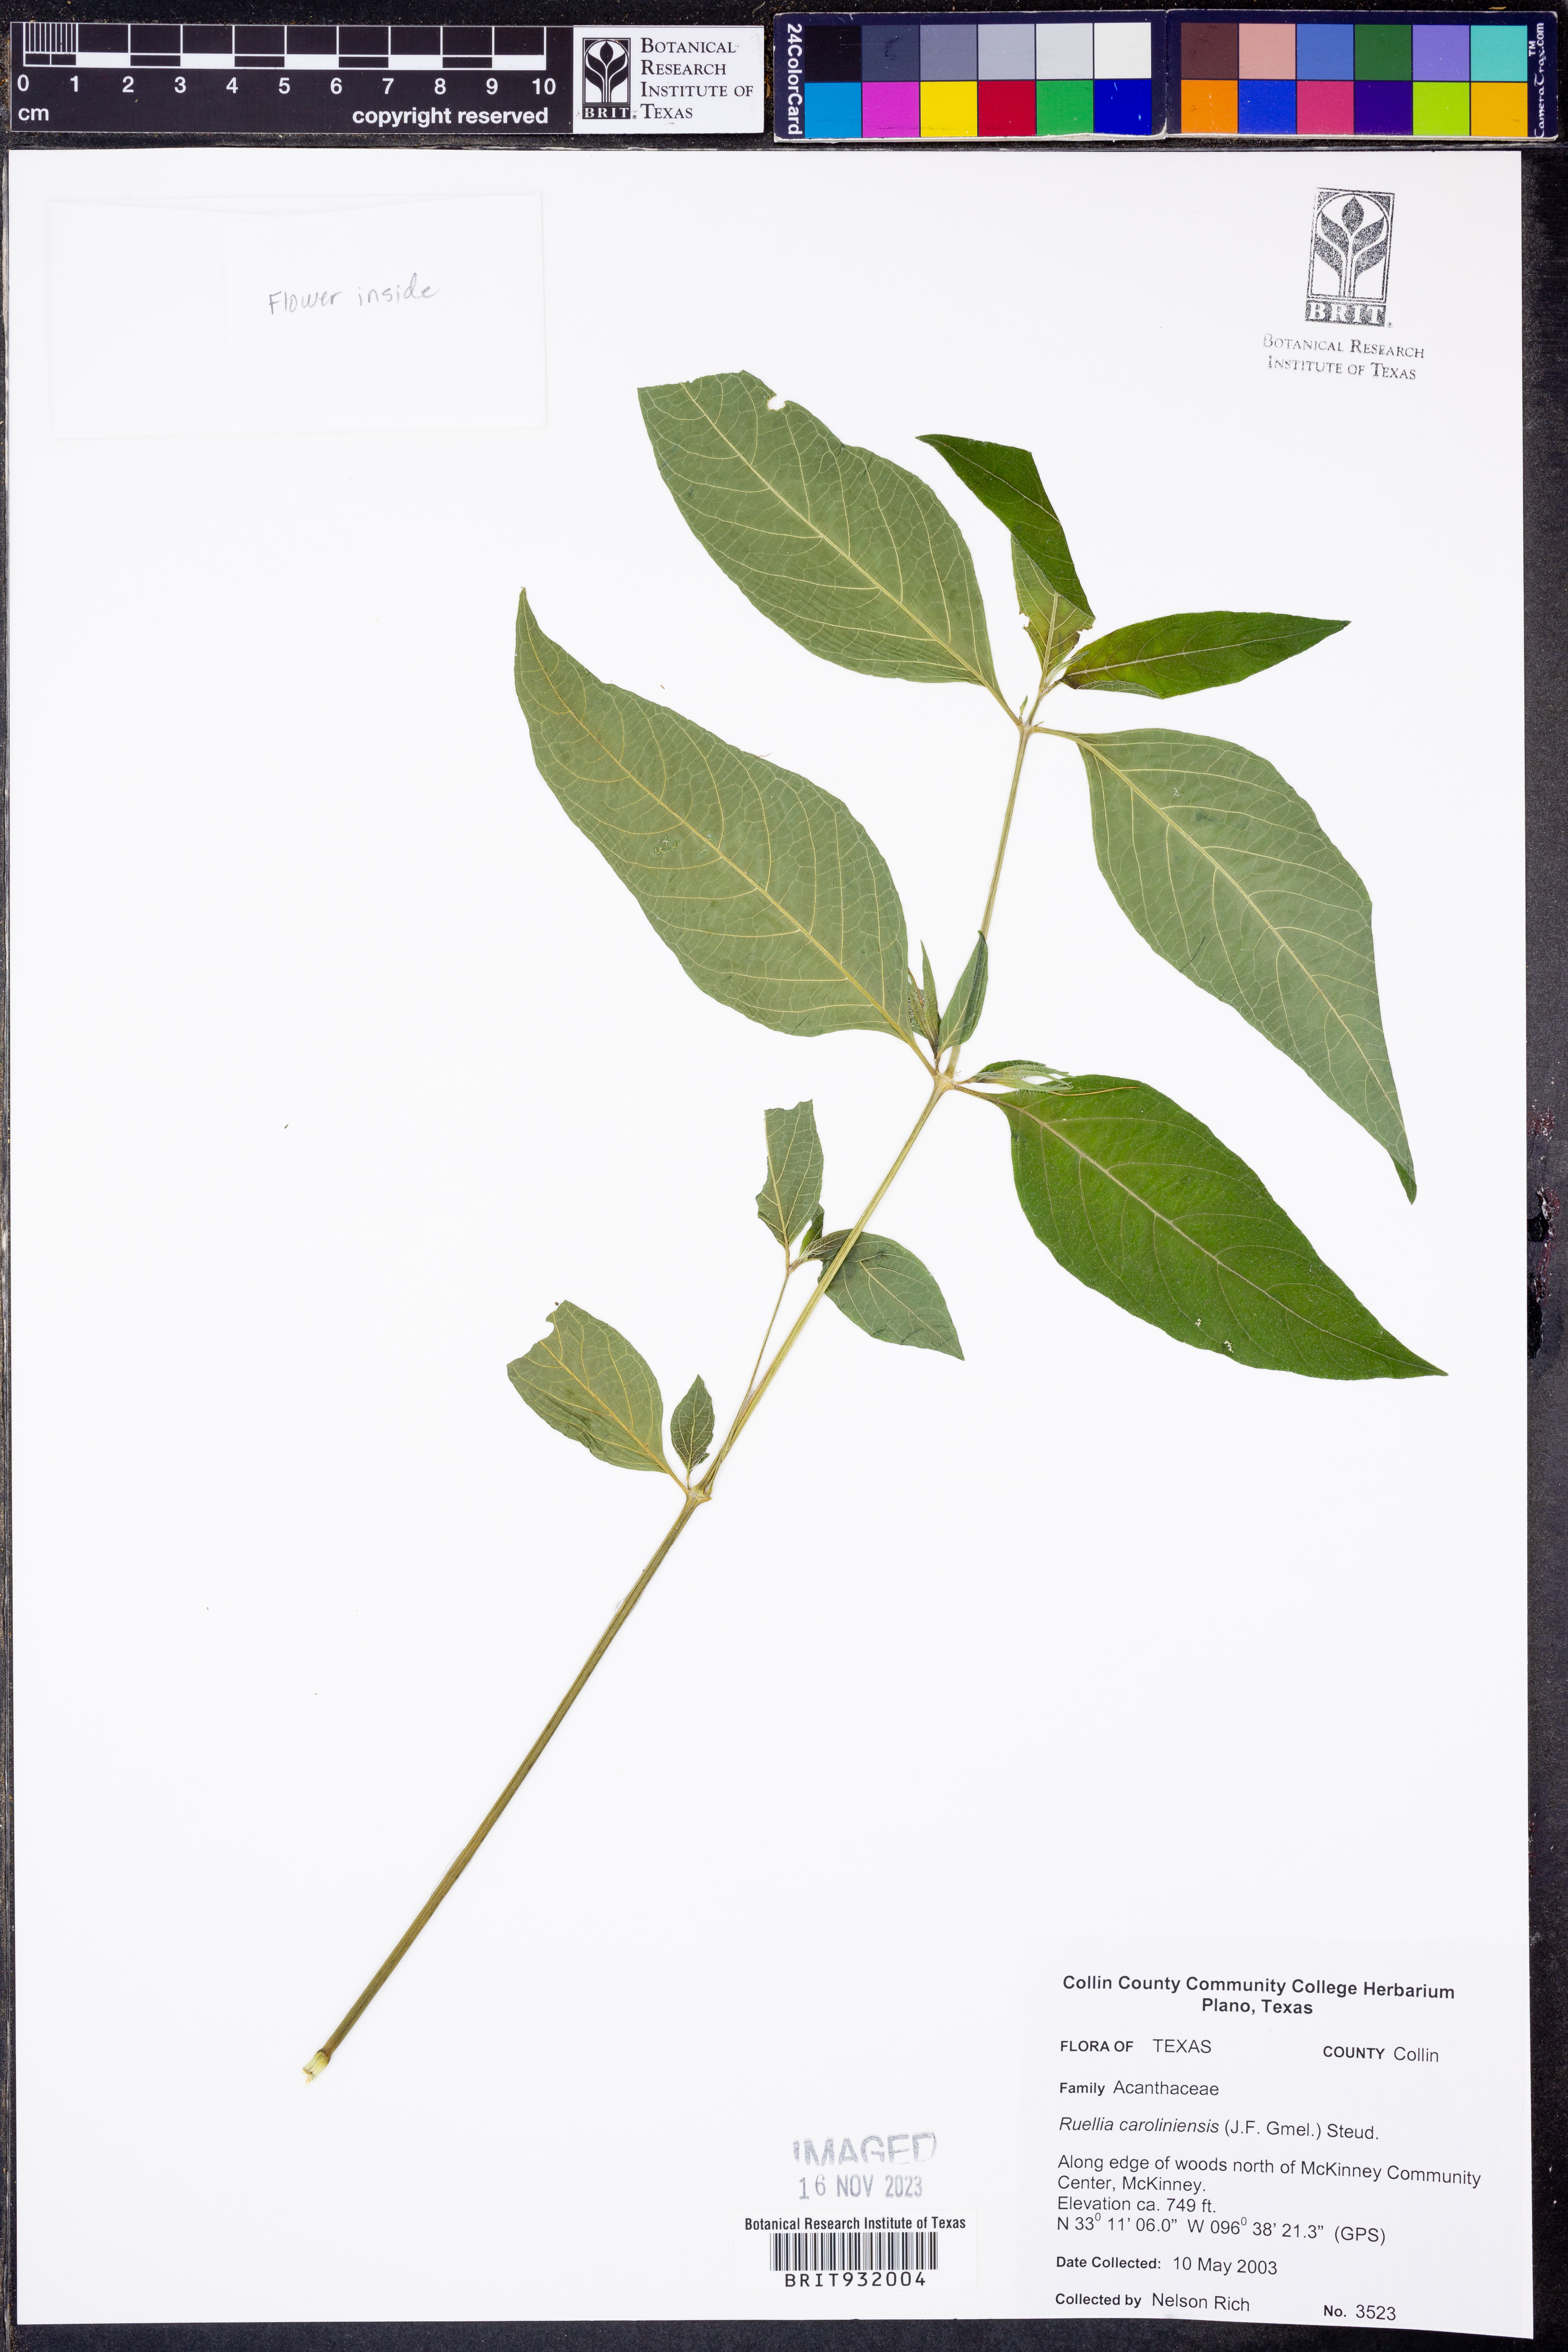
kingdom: Plantae
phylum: Tracheophyta
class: Magnoliopsida
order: Lamiales
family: Acanthaceae
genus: Ruellia
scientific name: Ruellia caroliniensis
